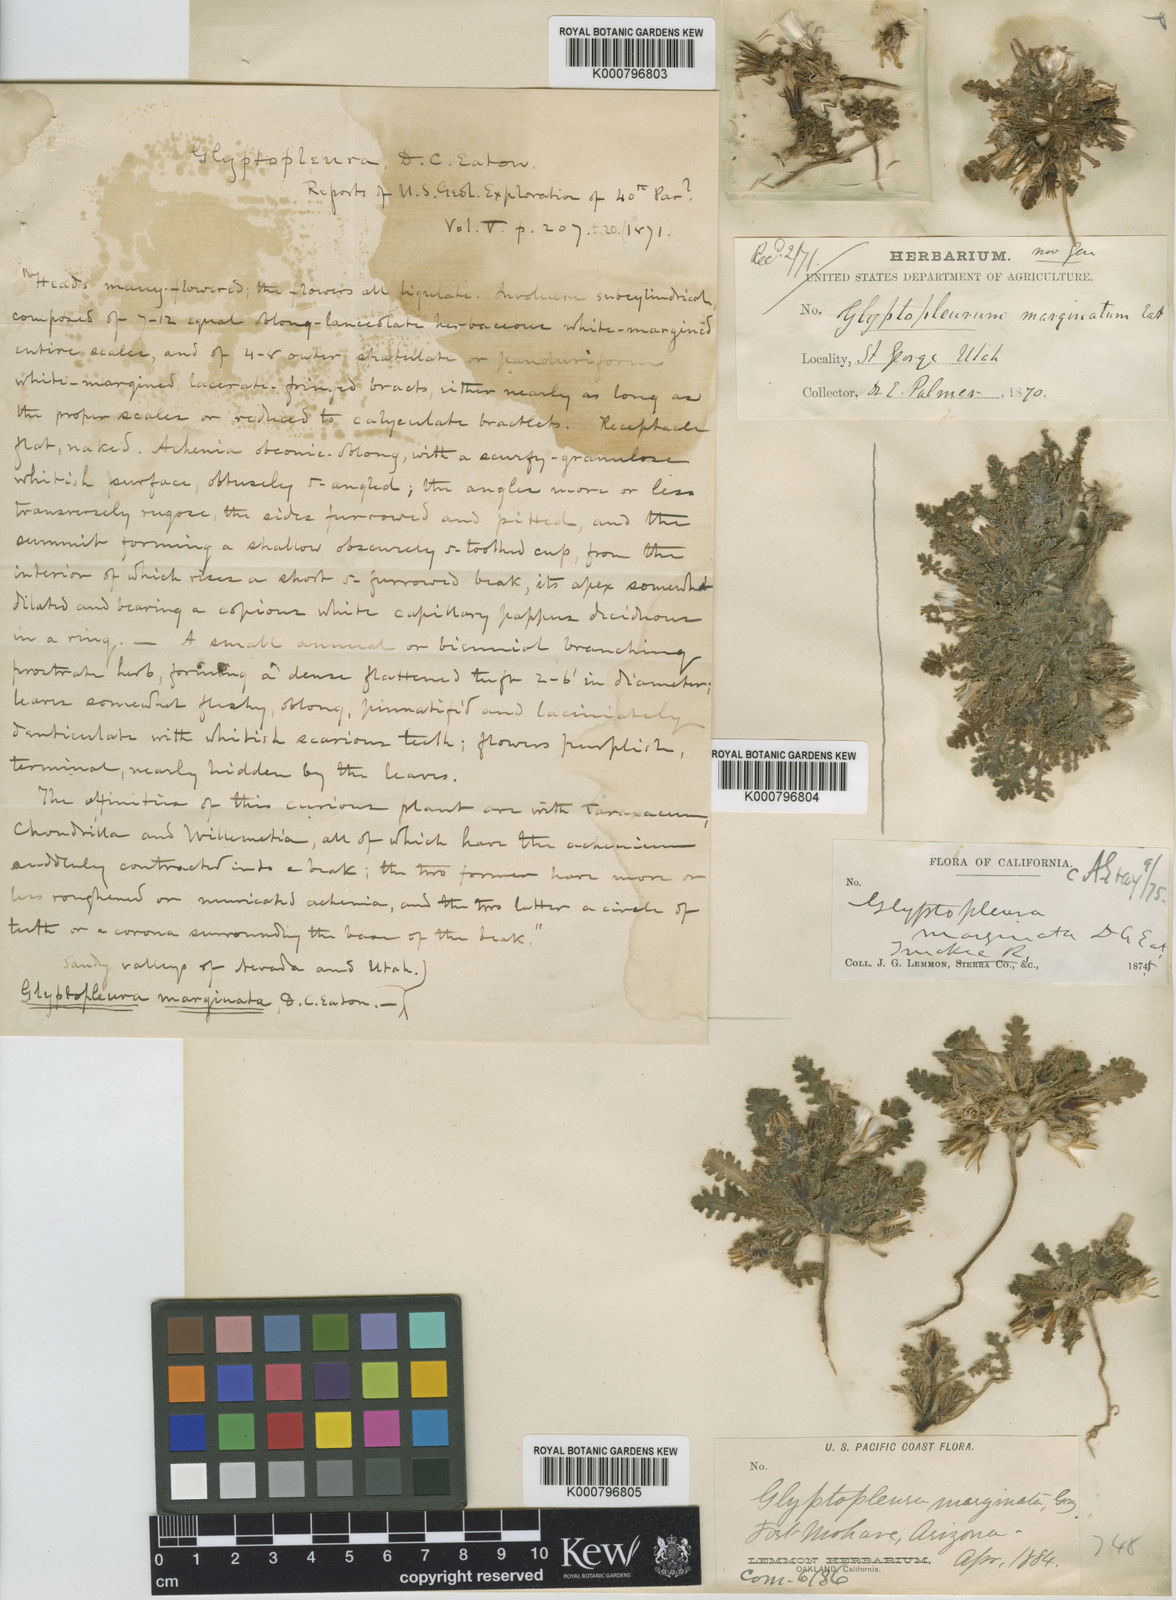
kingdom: Plantae
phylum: Tracheophyta
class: Magnoliopsida
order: Asterales
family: Asteraceae
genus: Glyptopleura
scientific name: Glyptopleura marginata
